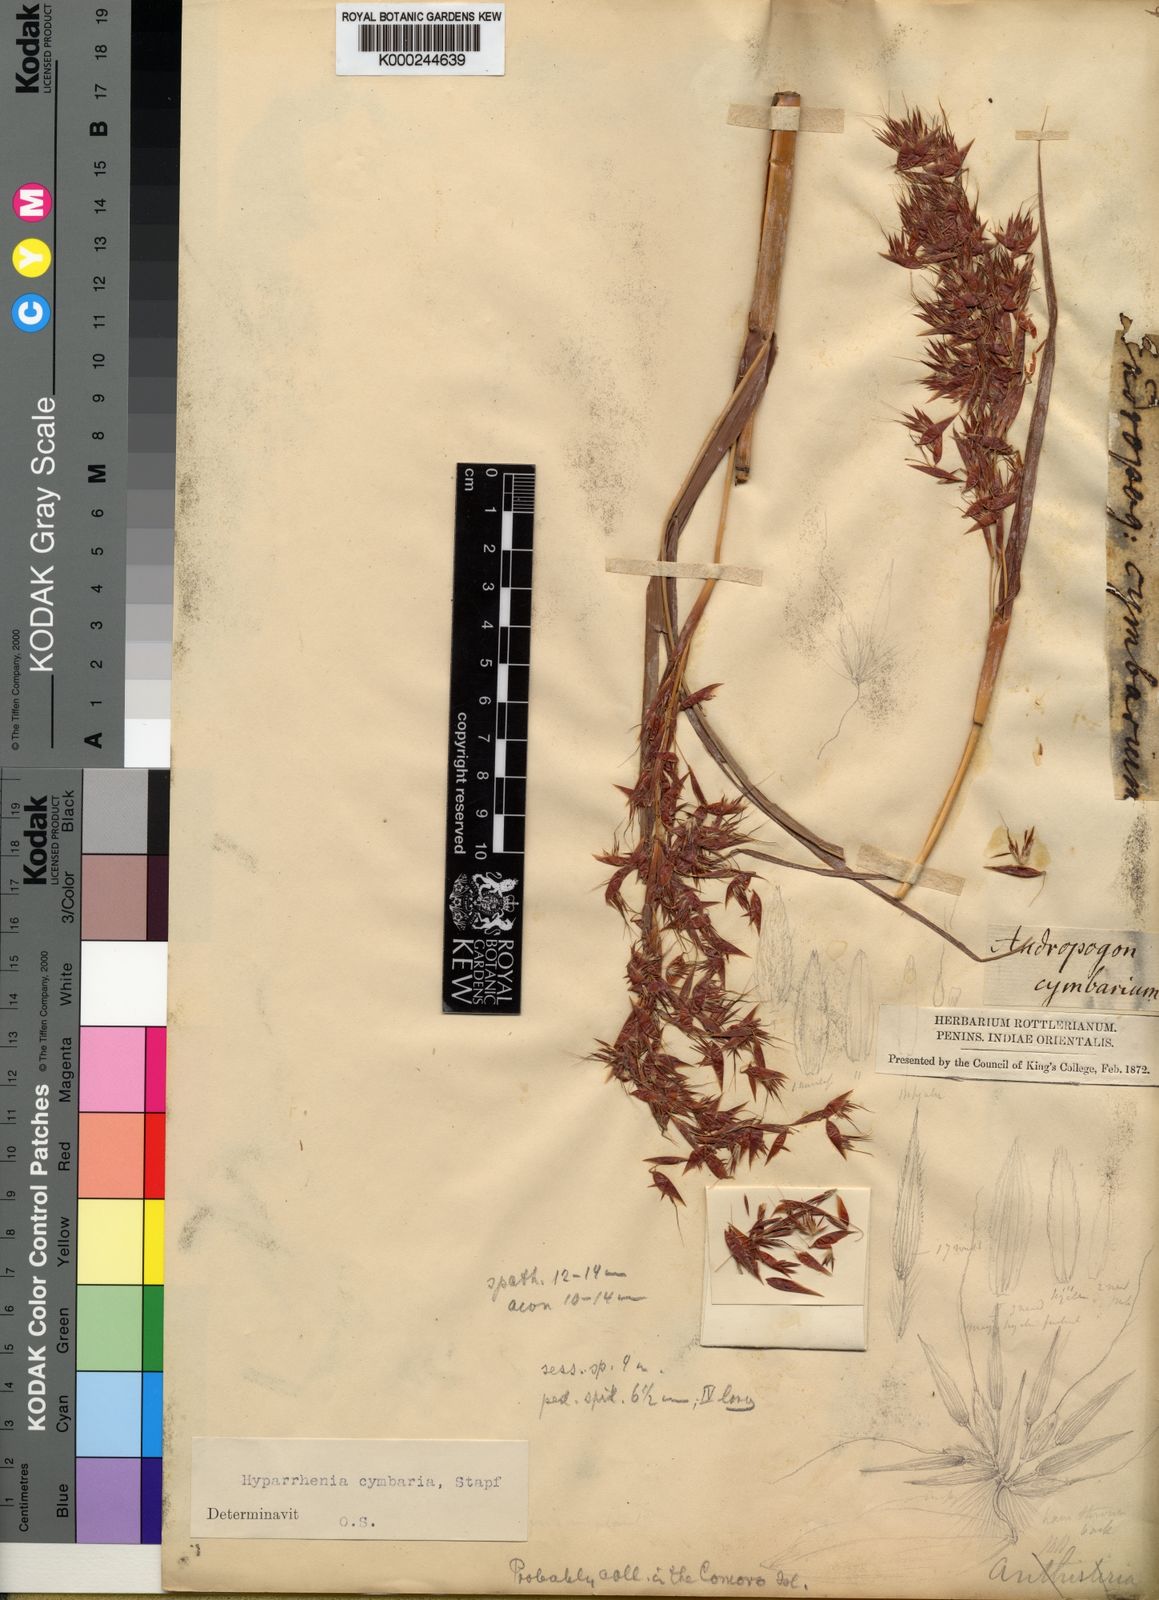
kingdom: Plantae
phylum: Tracheophyta
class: Liliopsida
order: Poales
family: Poaceae
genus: Hyparrhenia
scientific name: Hyparrhenia cymbaria
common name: Boat thatching grass
